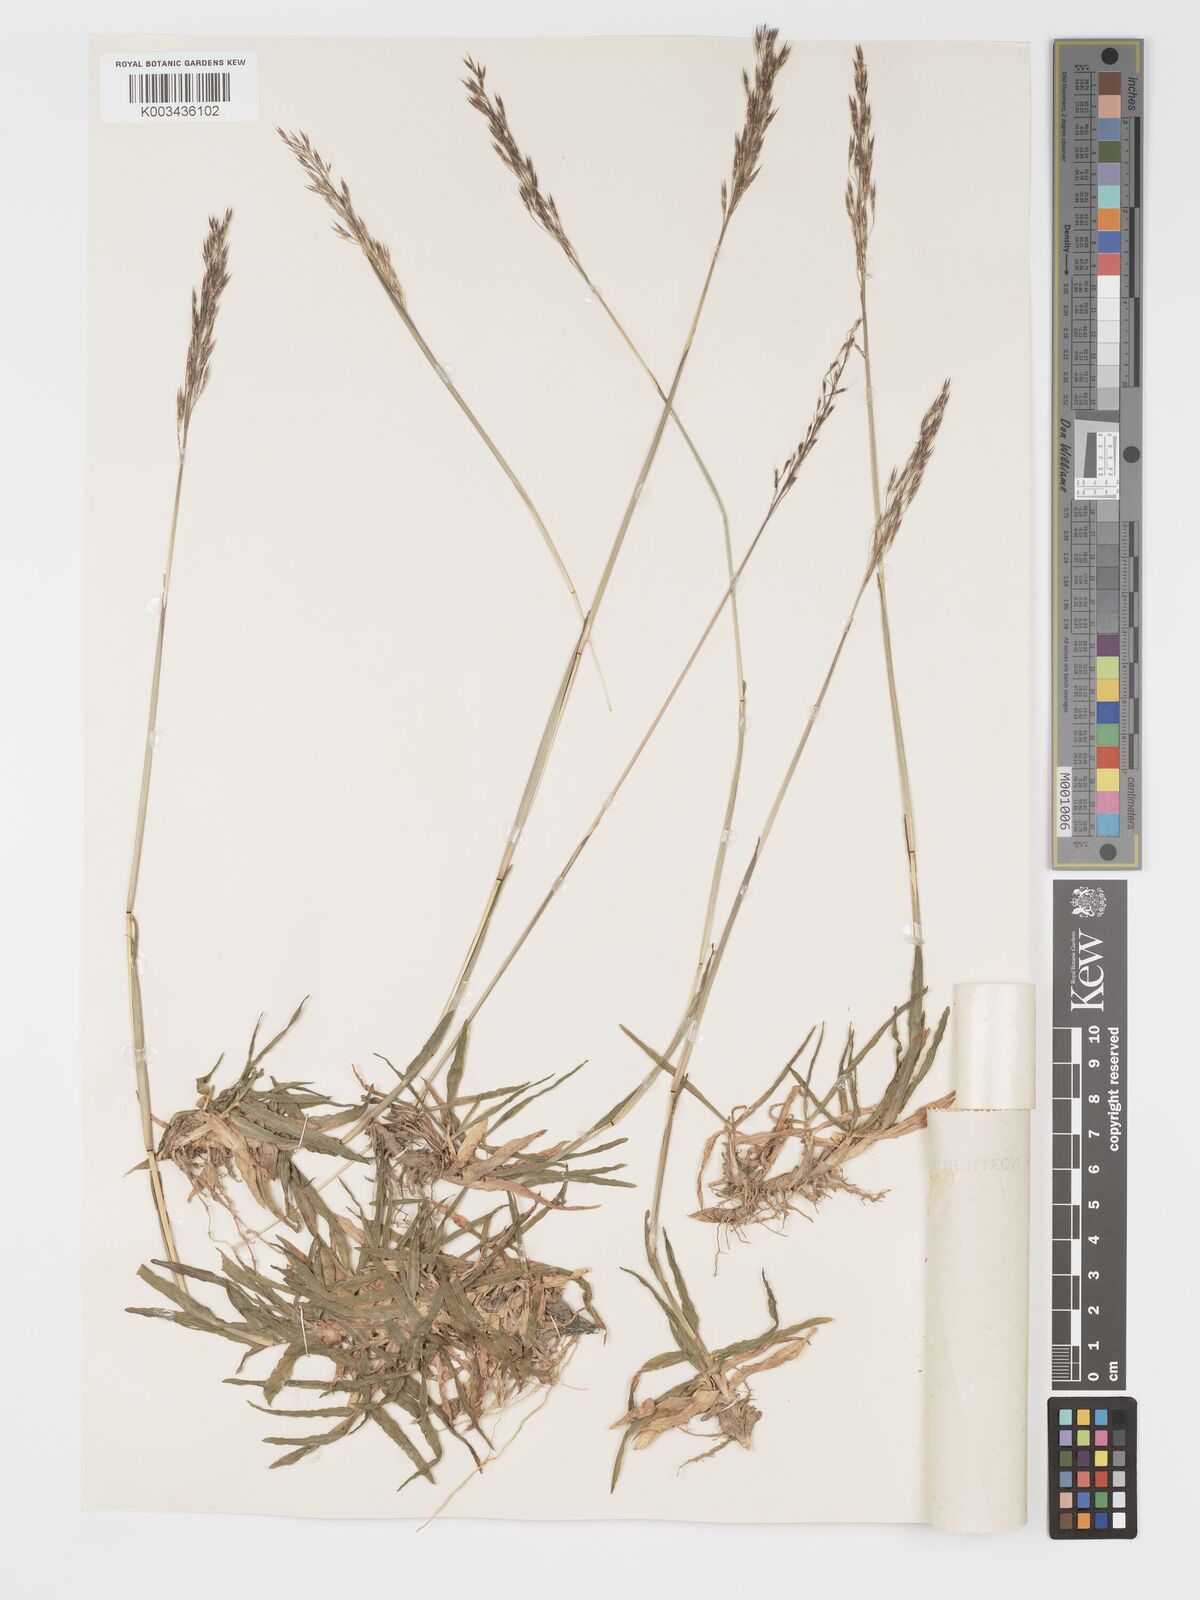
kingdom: Plantae
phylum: Tracheophyta
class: Liliopsida
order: Poales
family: Poaceae
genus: Chrysopogon
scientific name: Chrysopogon aciculatus
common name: Pilipiliula
